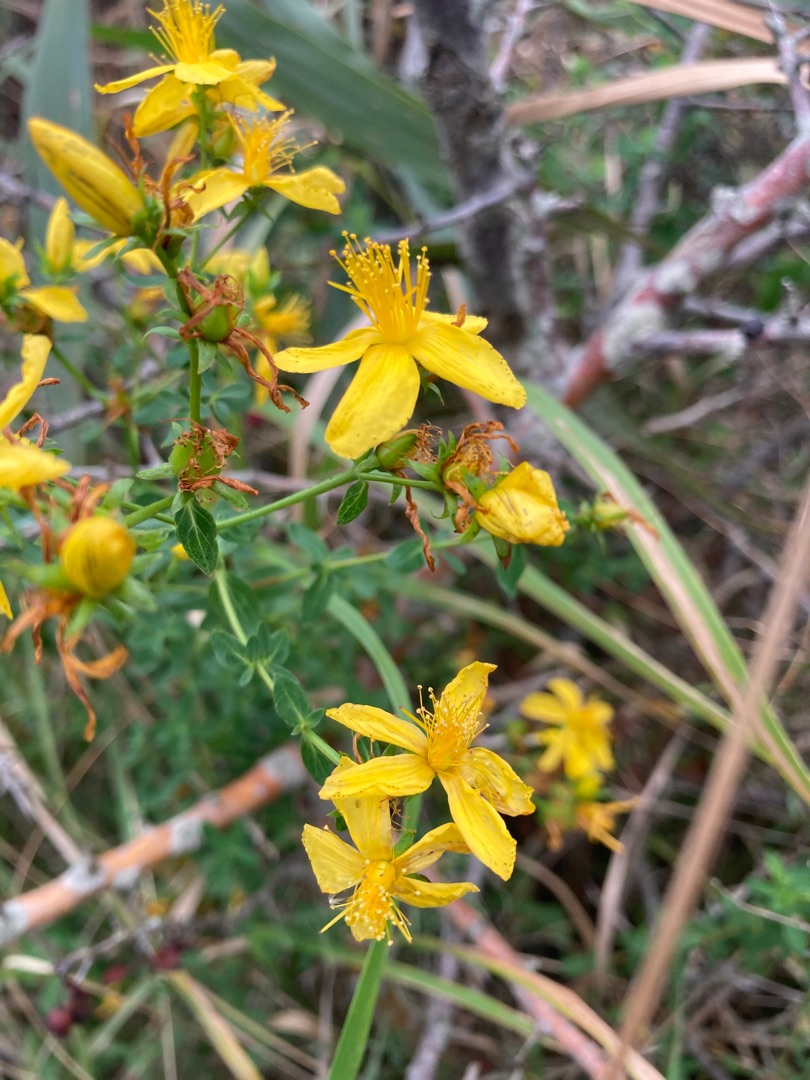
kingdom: Plantae
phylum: Tracheophyta
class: Magnoliopsida
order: Malpighiales
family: Hypericaceae
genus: Hypericum
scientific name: Hypericum perforatum
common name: Prikbladet perikon
